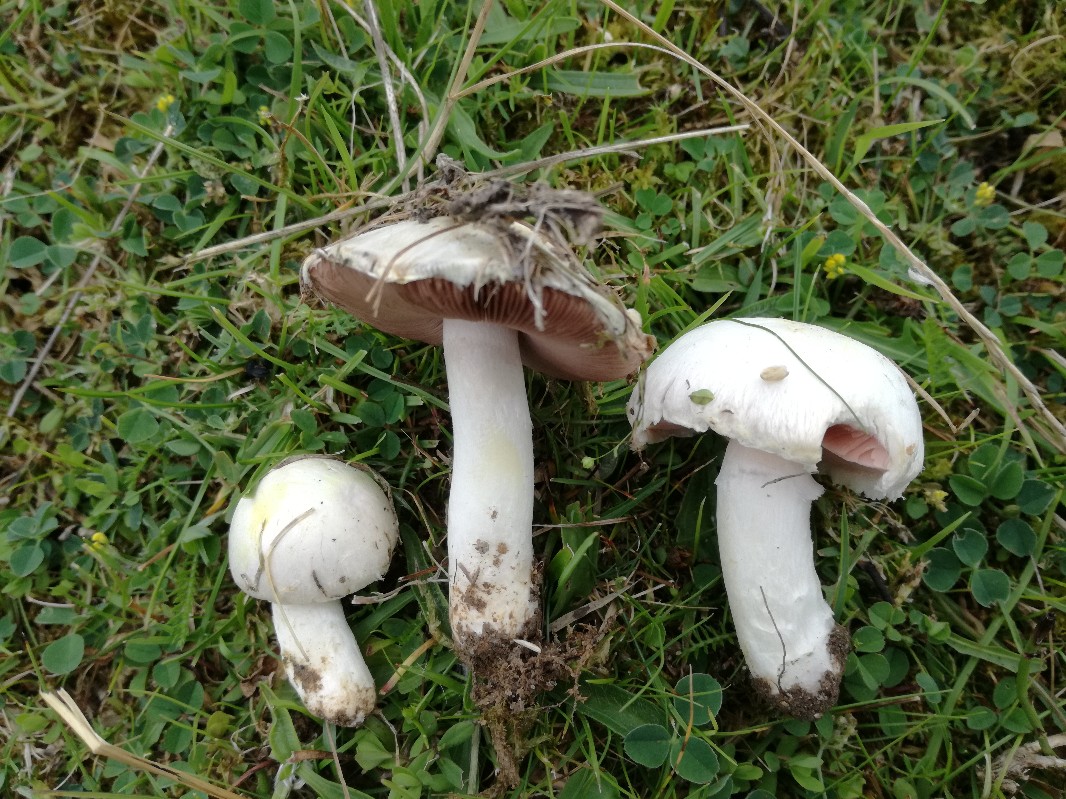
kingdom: Fungi
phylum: Basidiomycota
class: Agaricomycetes
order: Agaricales
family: Agaricaceae
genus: Agaricus
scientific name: Agaricus moellerianus
